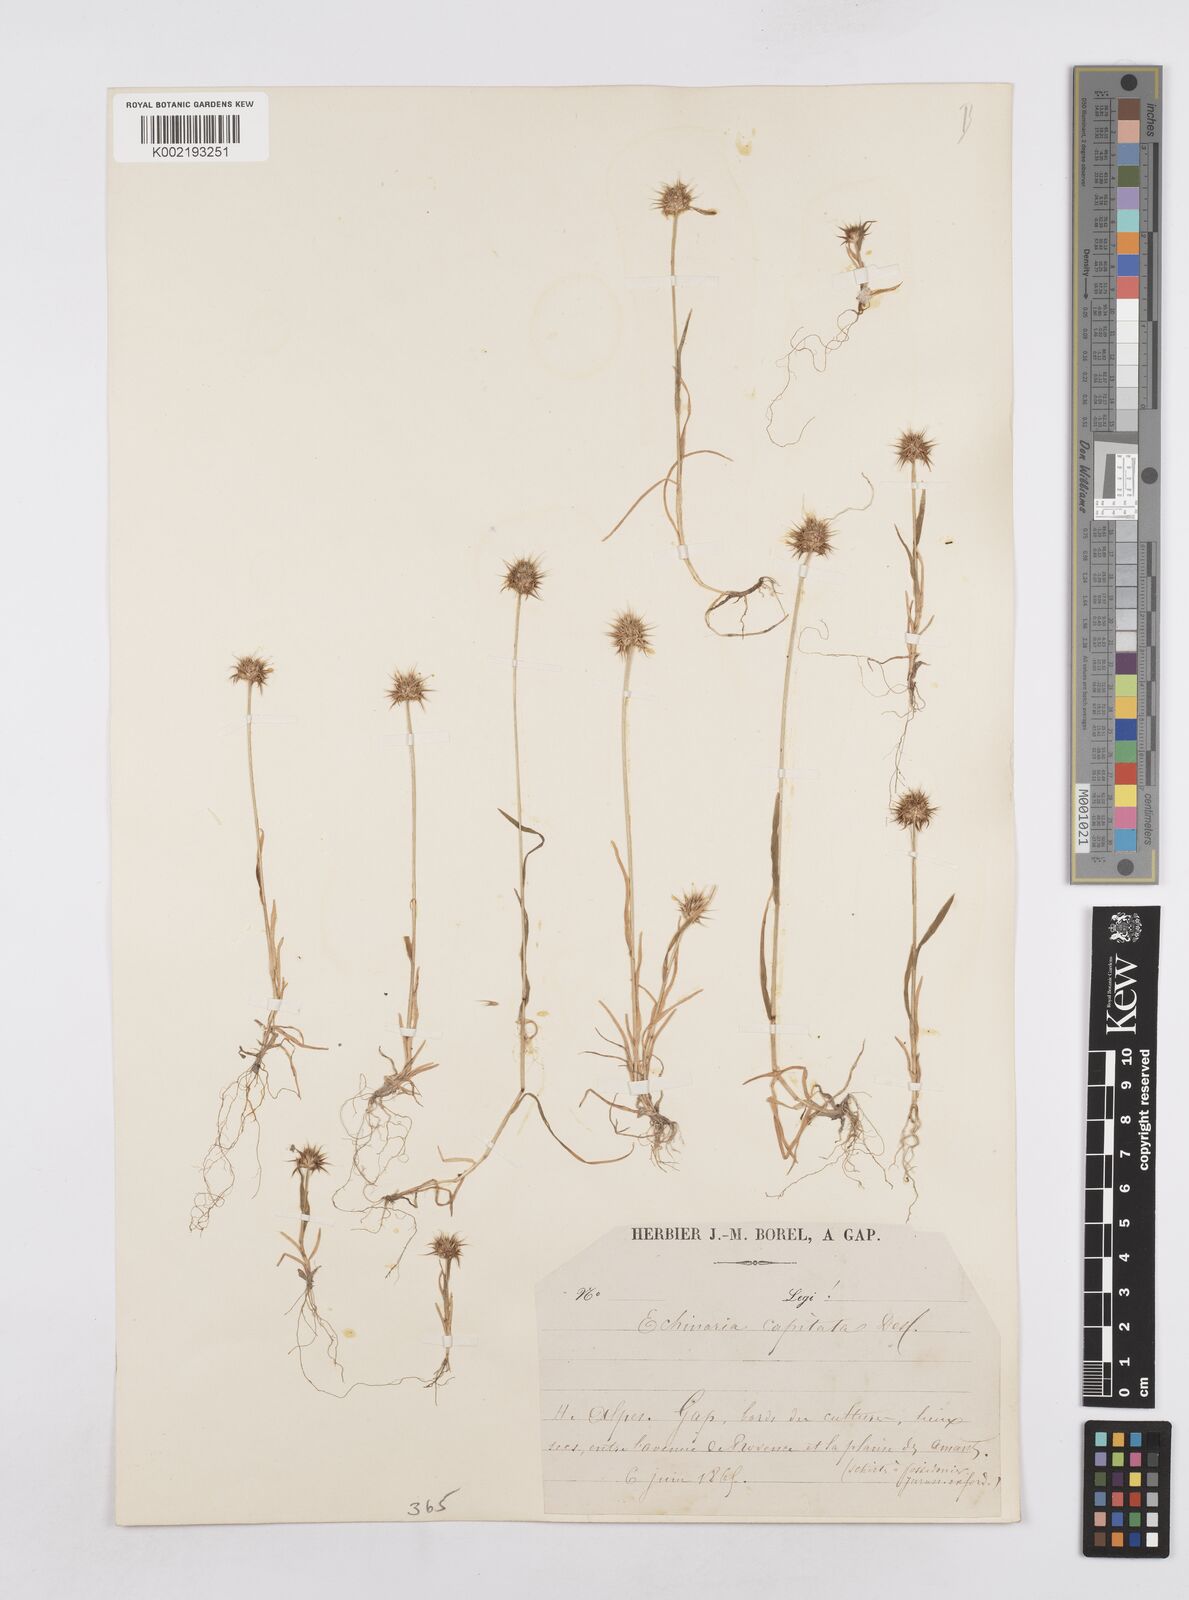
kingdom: Plantae
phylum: Tracheophyta
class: Liliopsida
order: Poales
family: Poaceae
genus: Echinaria
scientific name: Echinaria capitata
